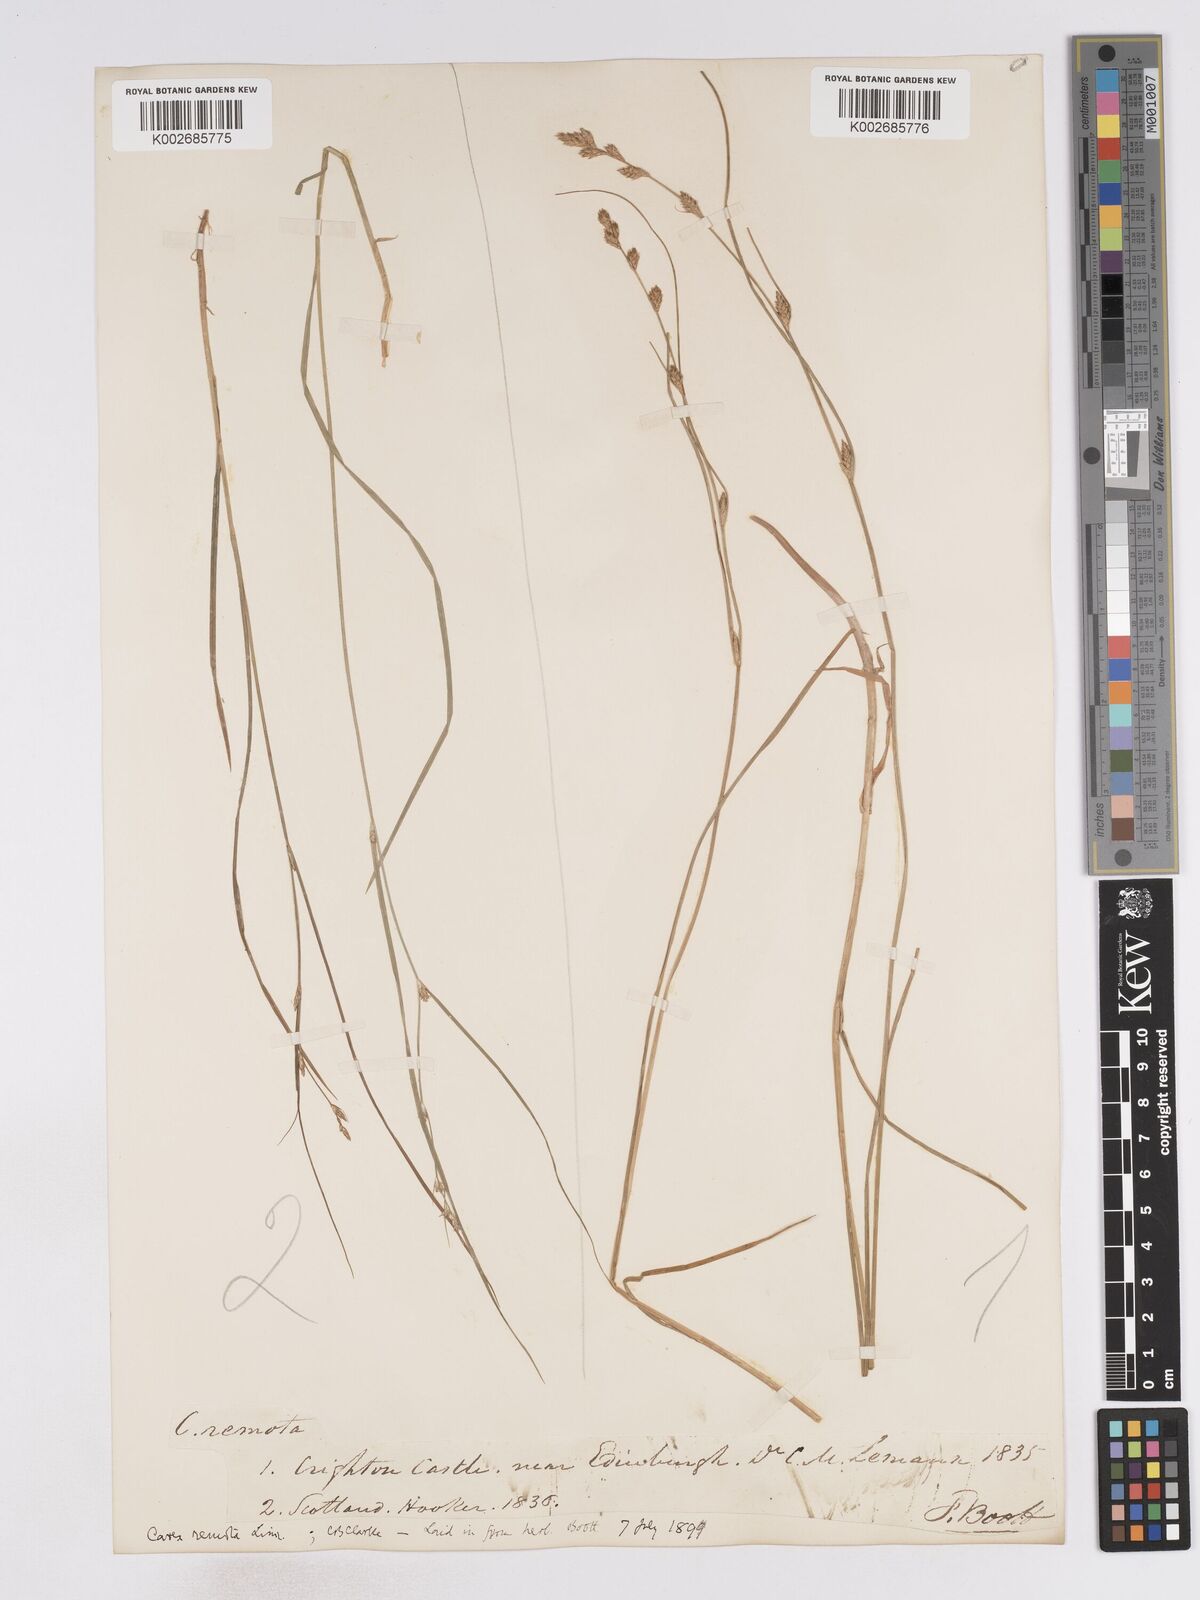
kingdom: Plantae
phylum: Tracheophyta
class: Liliopsida
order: Poales
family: Cyperaceae
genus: Carex
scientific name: Carex remota
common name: Remote sedge
